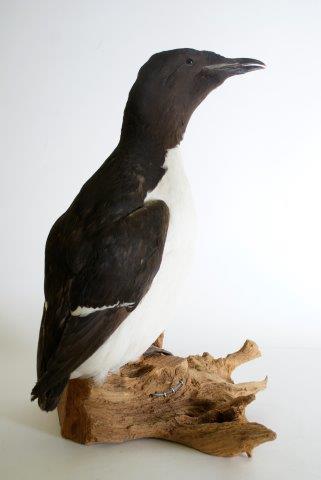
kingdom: Animalia
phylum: Chordata
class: Aves
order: Charadriiformes
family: Alcidae
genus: Uria
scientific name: Uria lomvia
